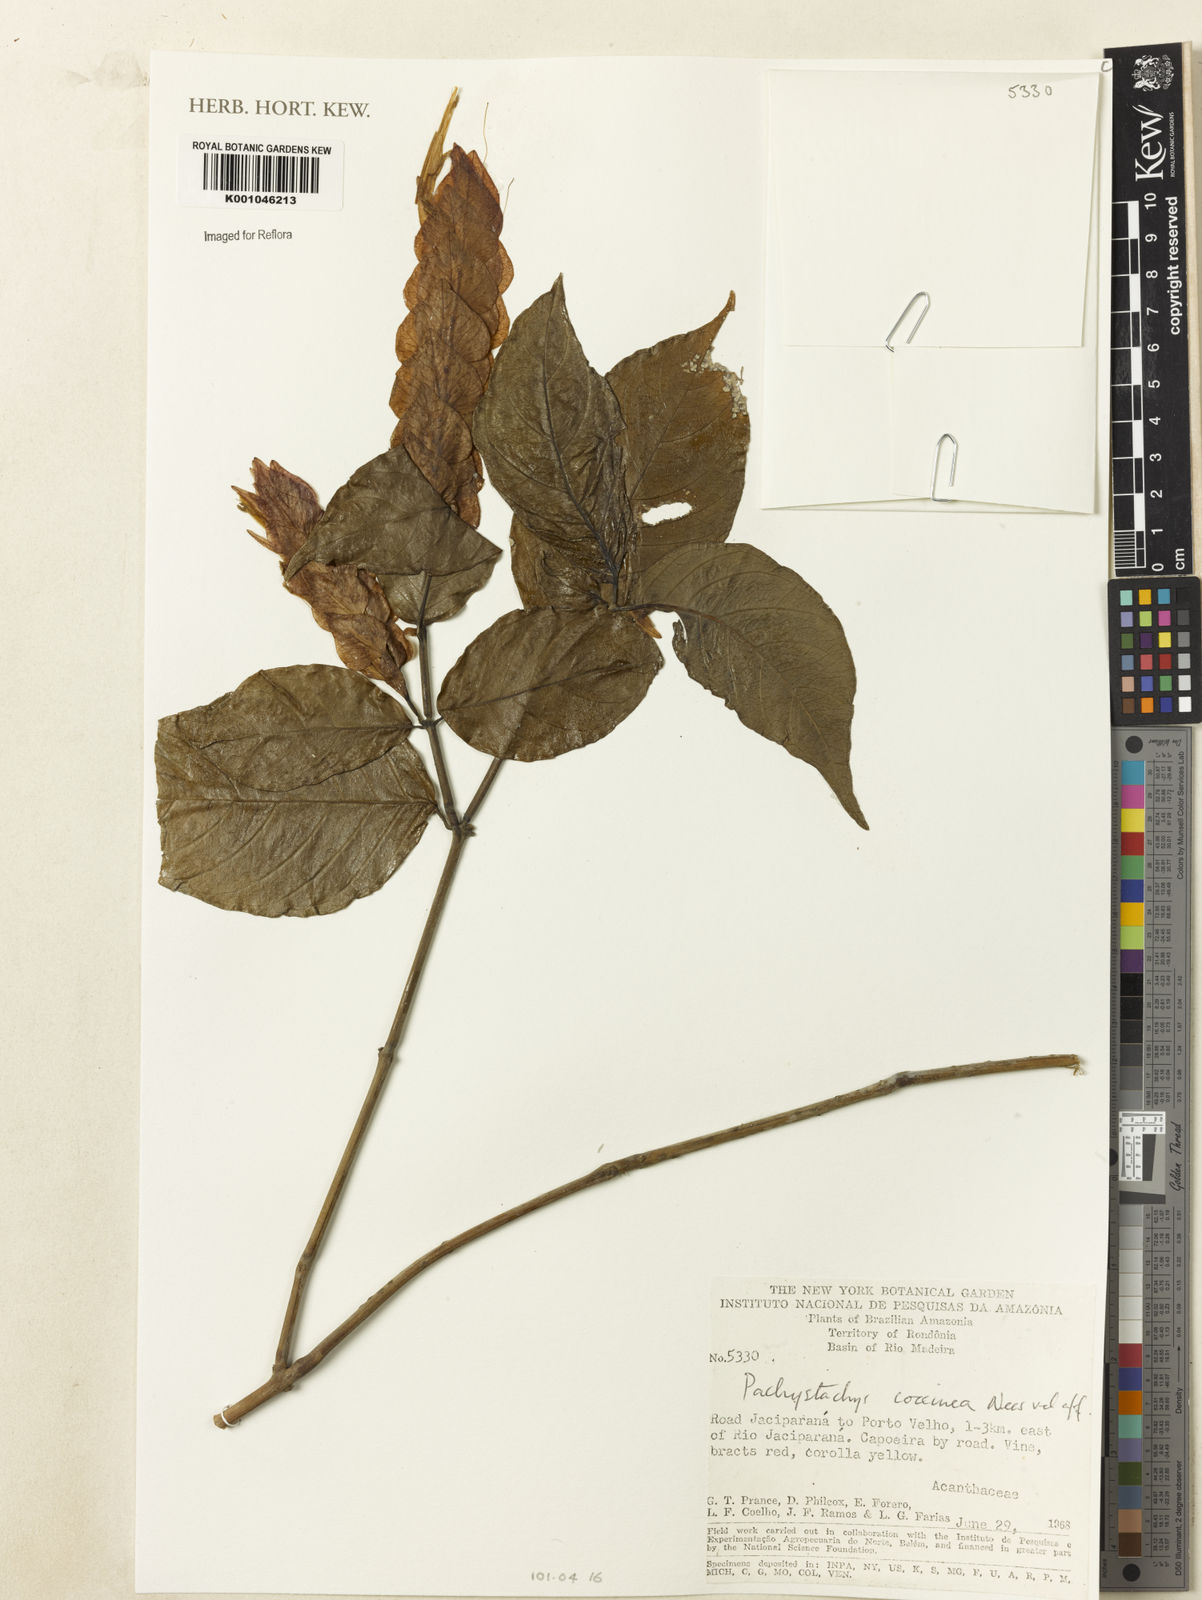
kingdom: Plantae
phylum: Tracheophyta
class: Magnoliopsida
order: Lamiales
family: Acanthaceae
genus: Pachystachys
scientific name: Pachystachys coccinea
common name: Cardinal's-guard
